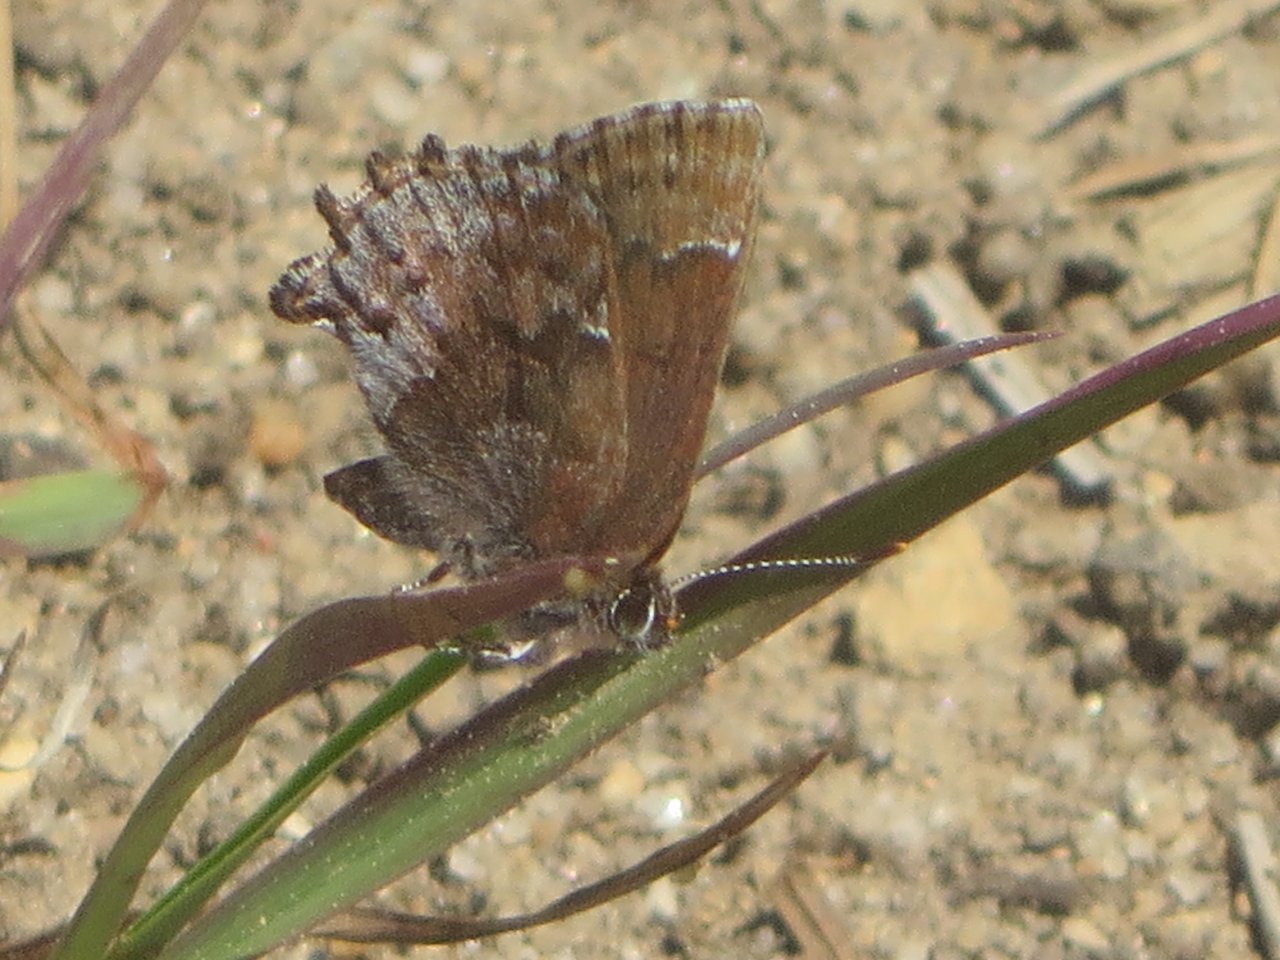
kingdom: Animalia
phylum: Arthropoda
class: Insecta
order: Lepidoptera
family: Lycaenidae
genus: Thecla
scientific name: Thecla irus
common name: Frosted Elfin
